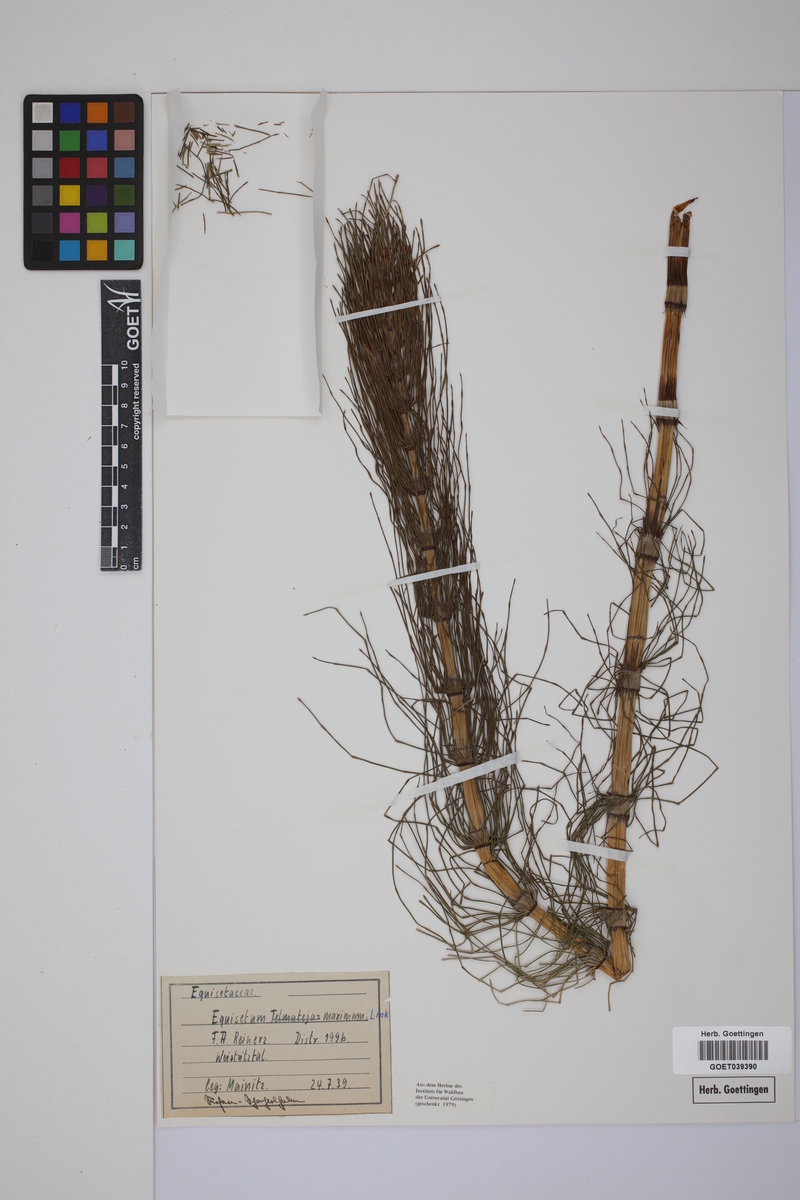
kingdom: Plantae
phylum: Tracheophyta
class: Polypodiopsida
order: Equisetales
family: Equisetaceae
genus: Equisetum
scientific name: Equisetum telmateia
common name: Great horsetail
